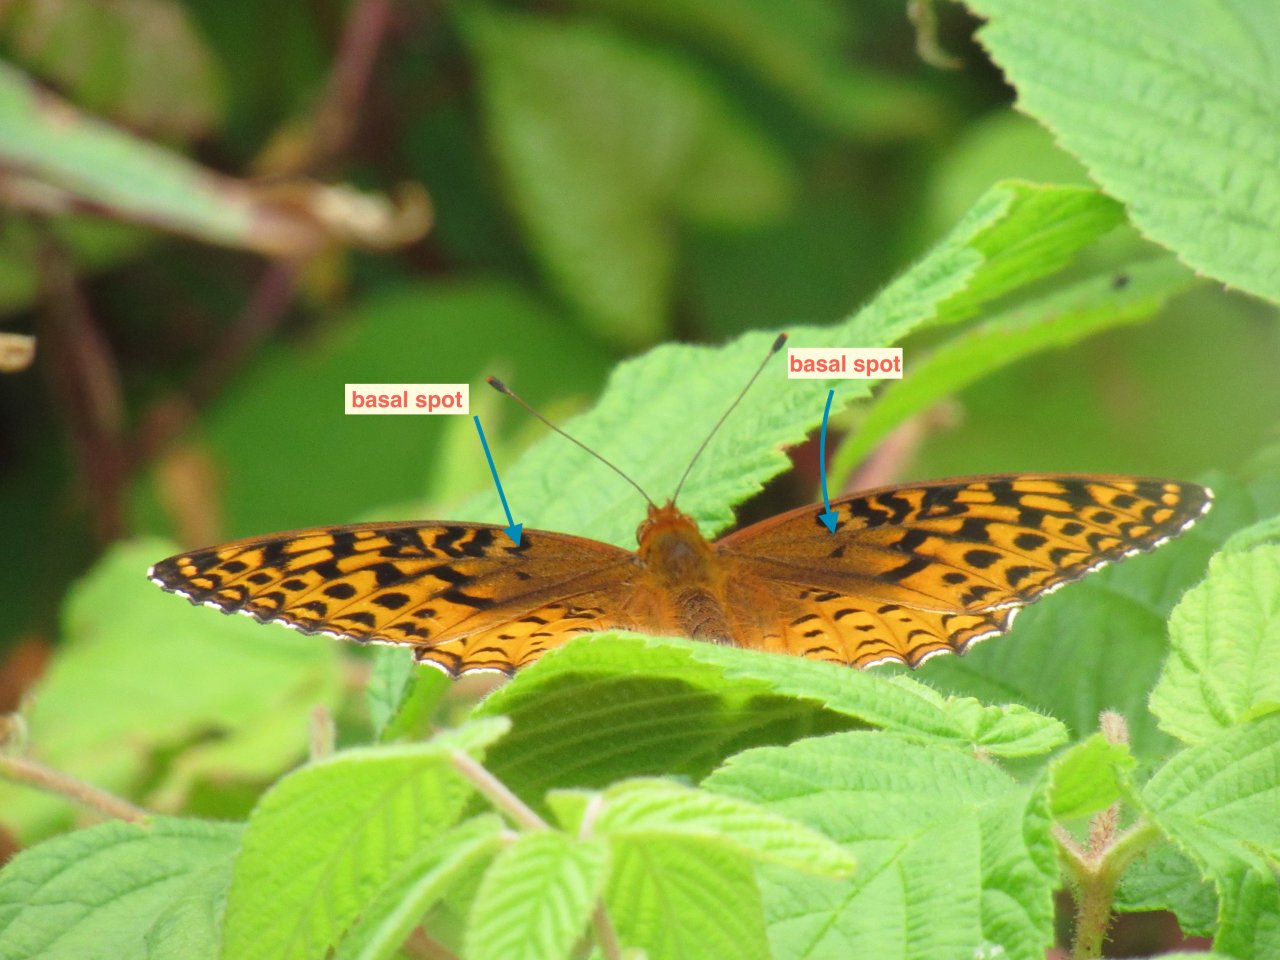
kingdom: Animalia
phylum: Arthropoda
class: Insecta
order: Lepidoptera
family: Nymphalidae
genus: Speyeria
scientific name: Speyeria aphrodite
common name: Aphrodite Fritillary
